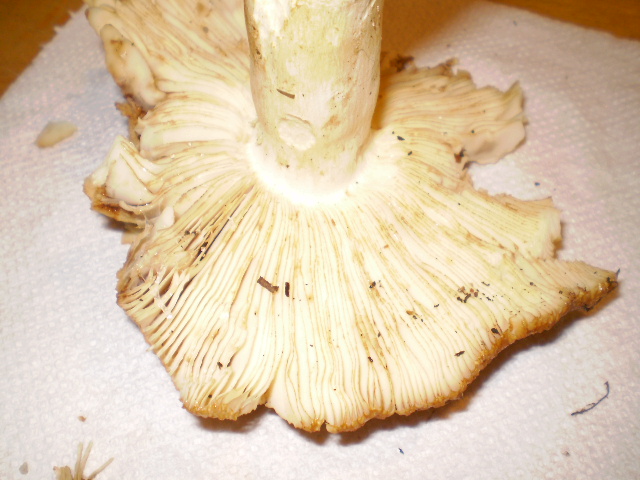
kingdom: Fungi
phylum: Basidiomycota
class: Agaricomycetes
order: Russulales
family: Russulaceae
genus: Russula
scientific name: Russula illota
